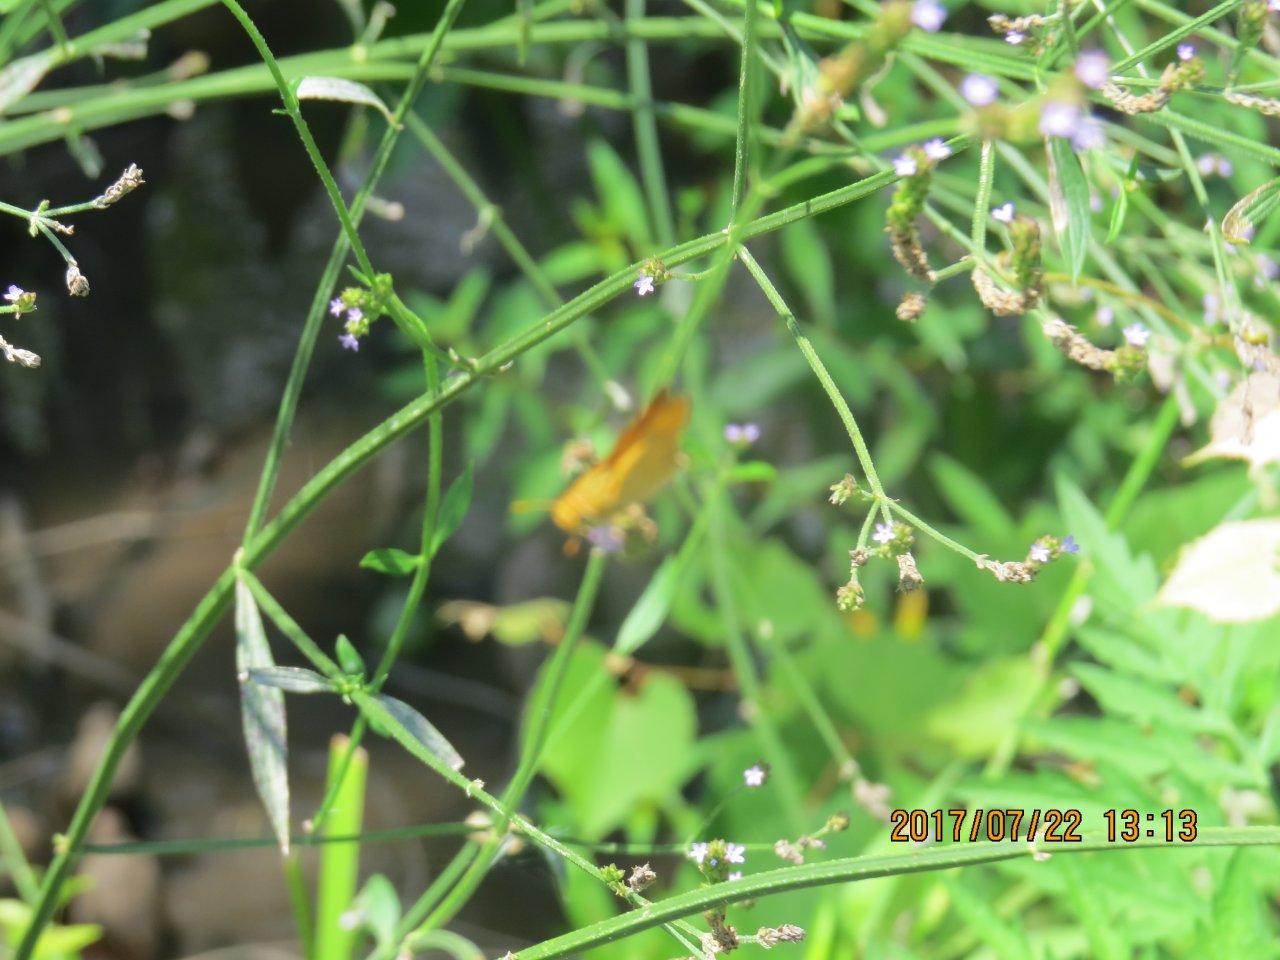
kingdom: Animalia
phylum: Arthropoda
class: Insecta
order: Lepidoptera
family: Hesperiidae
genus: Hylephila
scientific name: Hylephila phyleus
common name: Fiery Skipper
